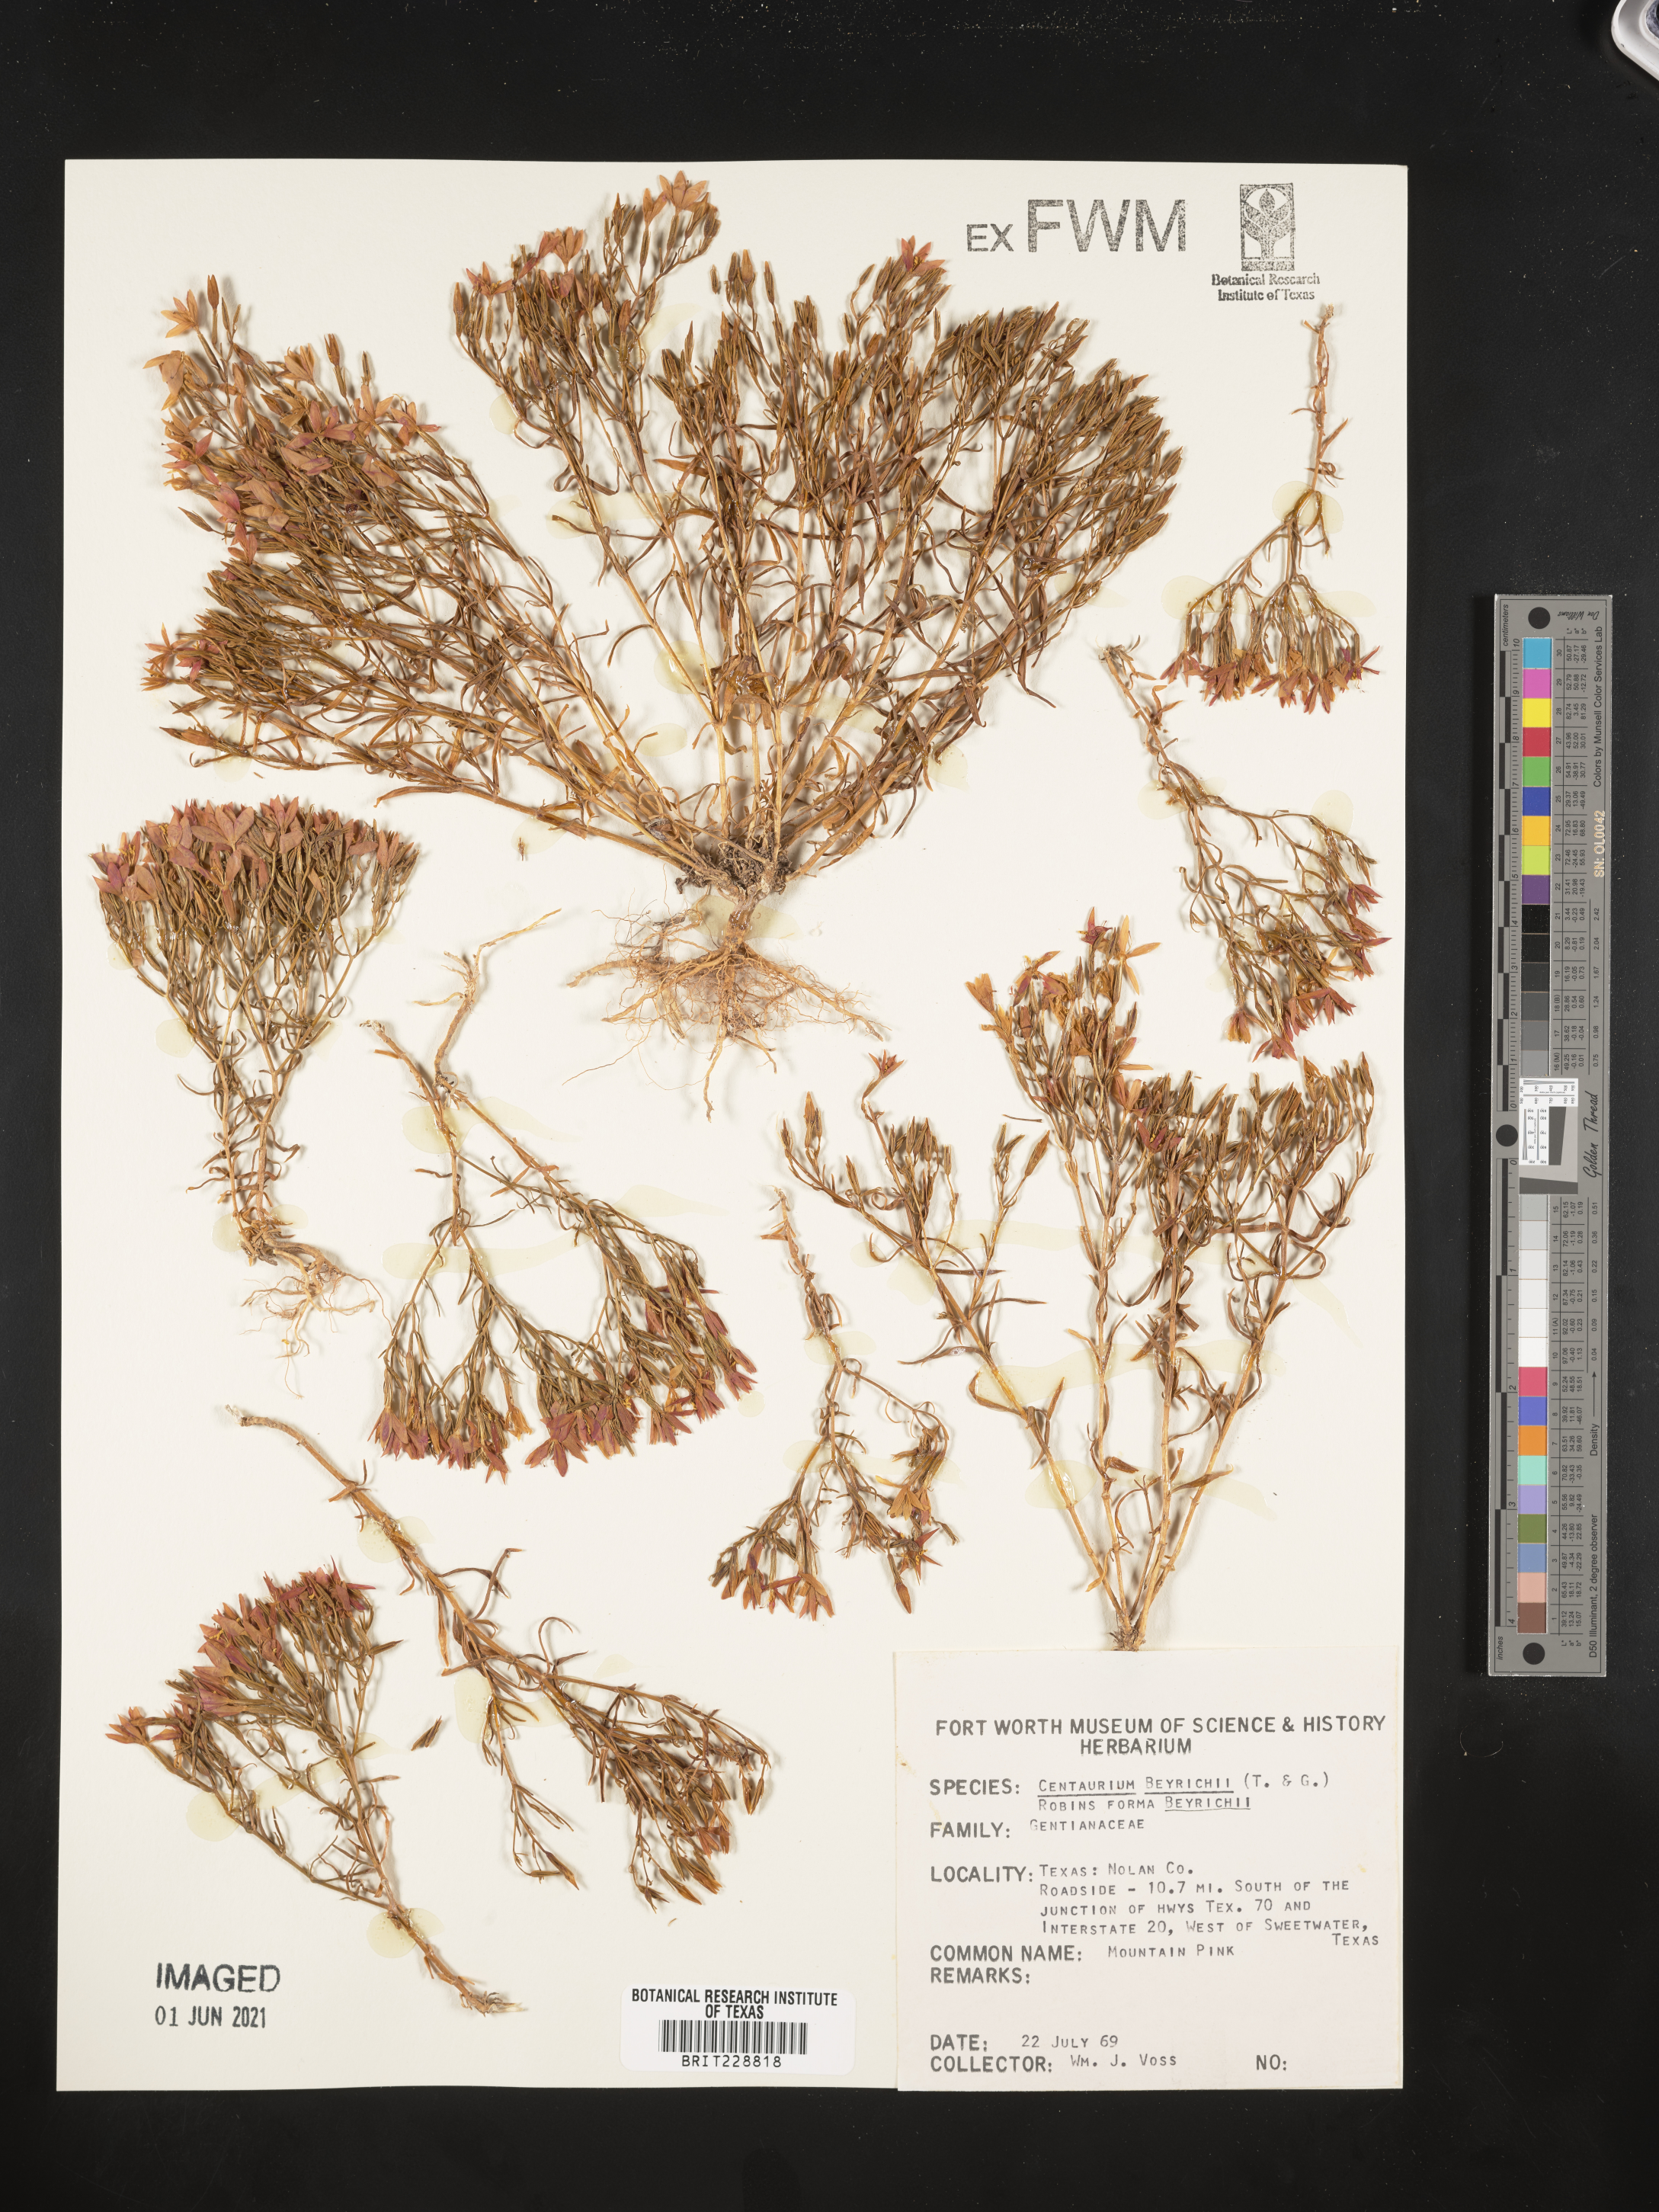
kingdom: Plantae
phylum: Tracheophyta
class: Magnoliopsida
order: Gentianales
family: Gentianaceae
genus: Zeltnera
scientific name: Zeltnera beyrichii
